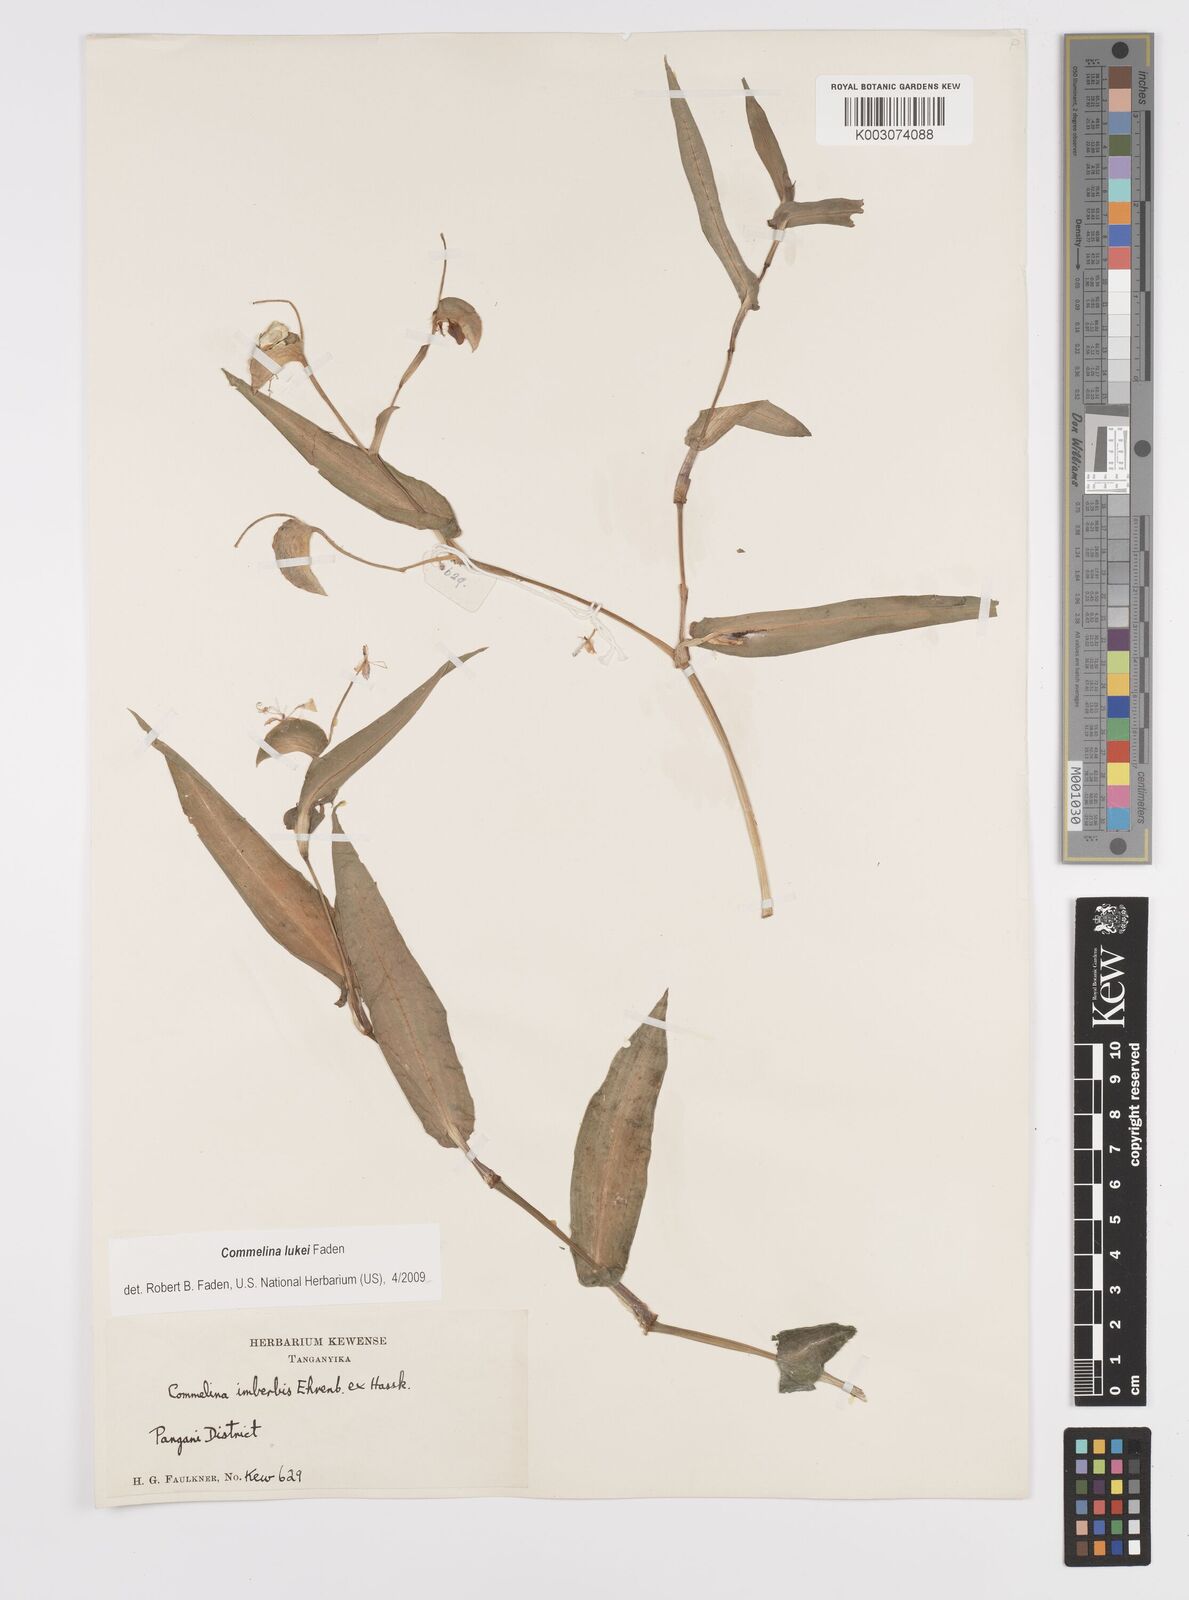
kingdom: Plantae
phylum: Tracheophyta
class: Liliopsida
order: Commelinales
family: Commelinaceae
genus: Commelina
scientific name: Commelina lukei
